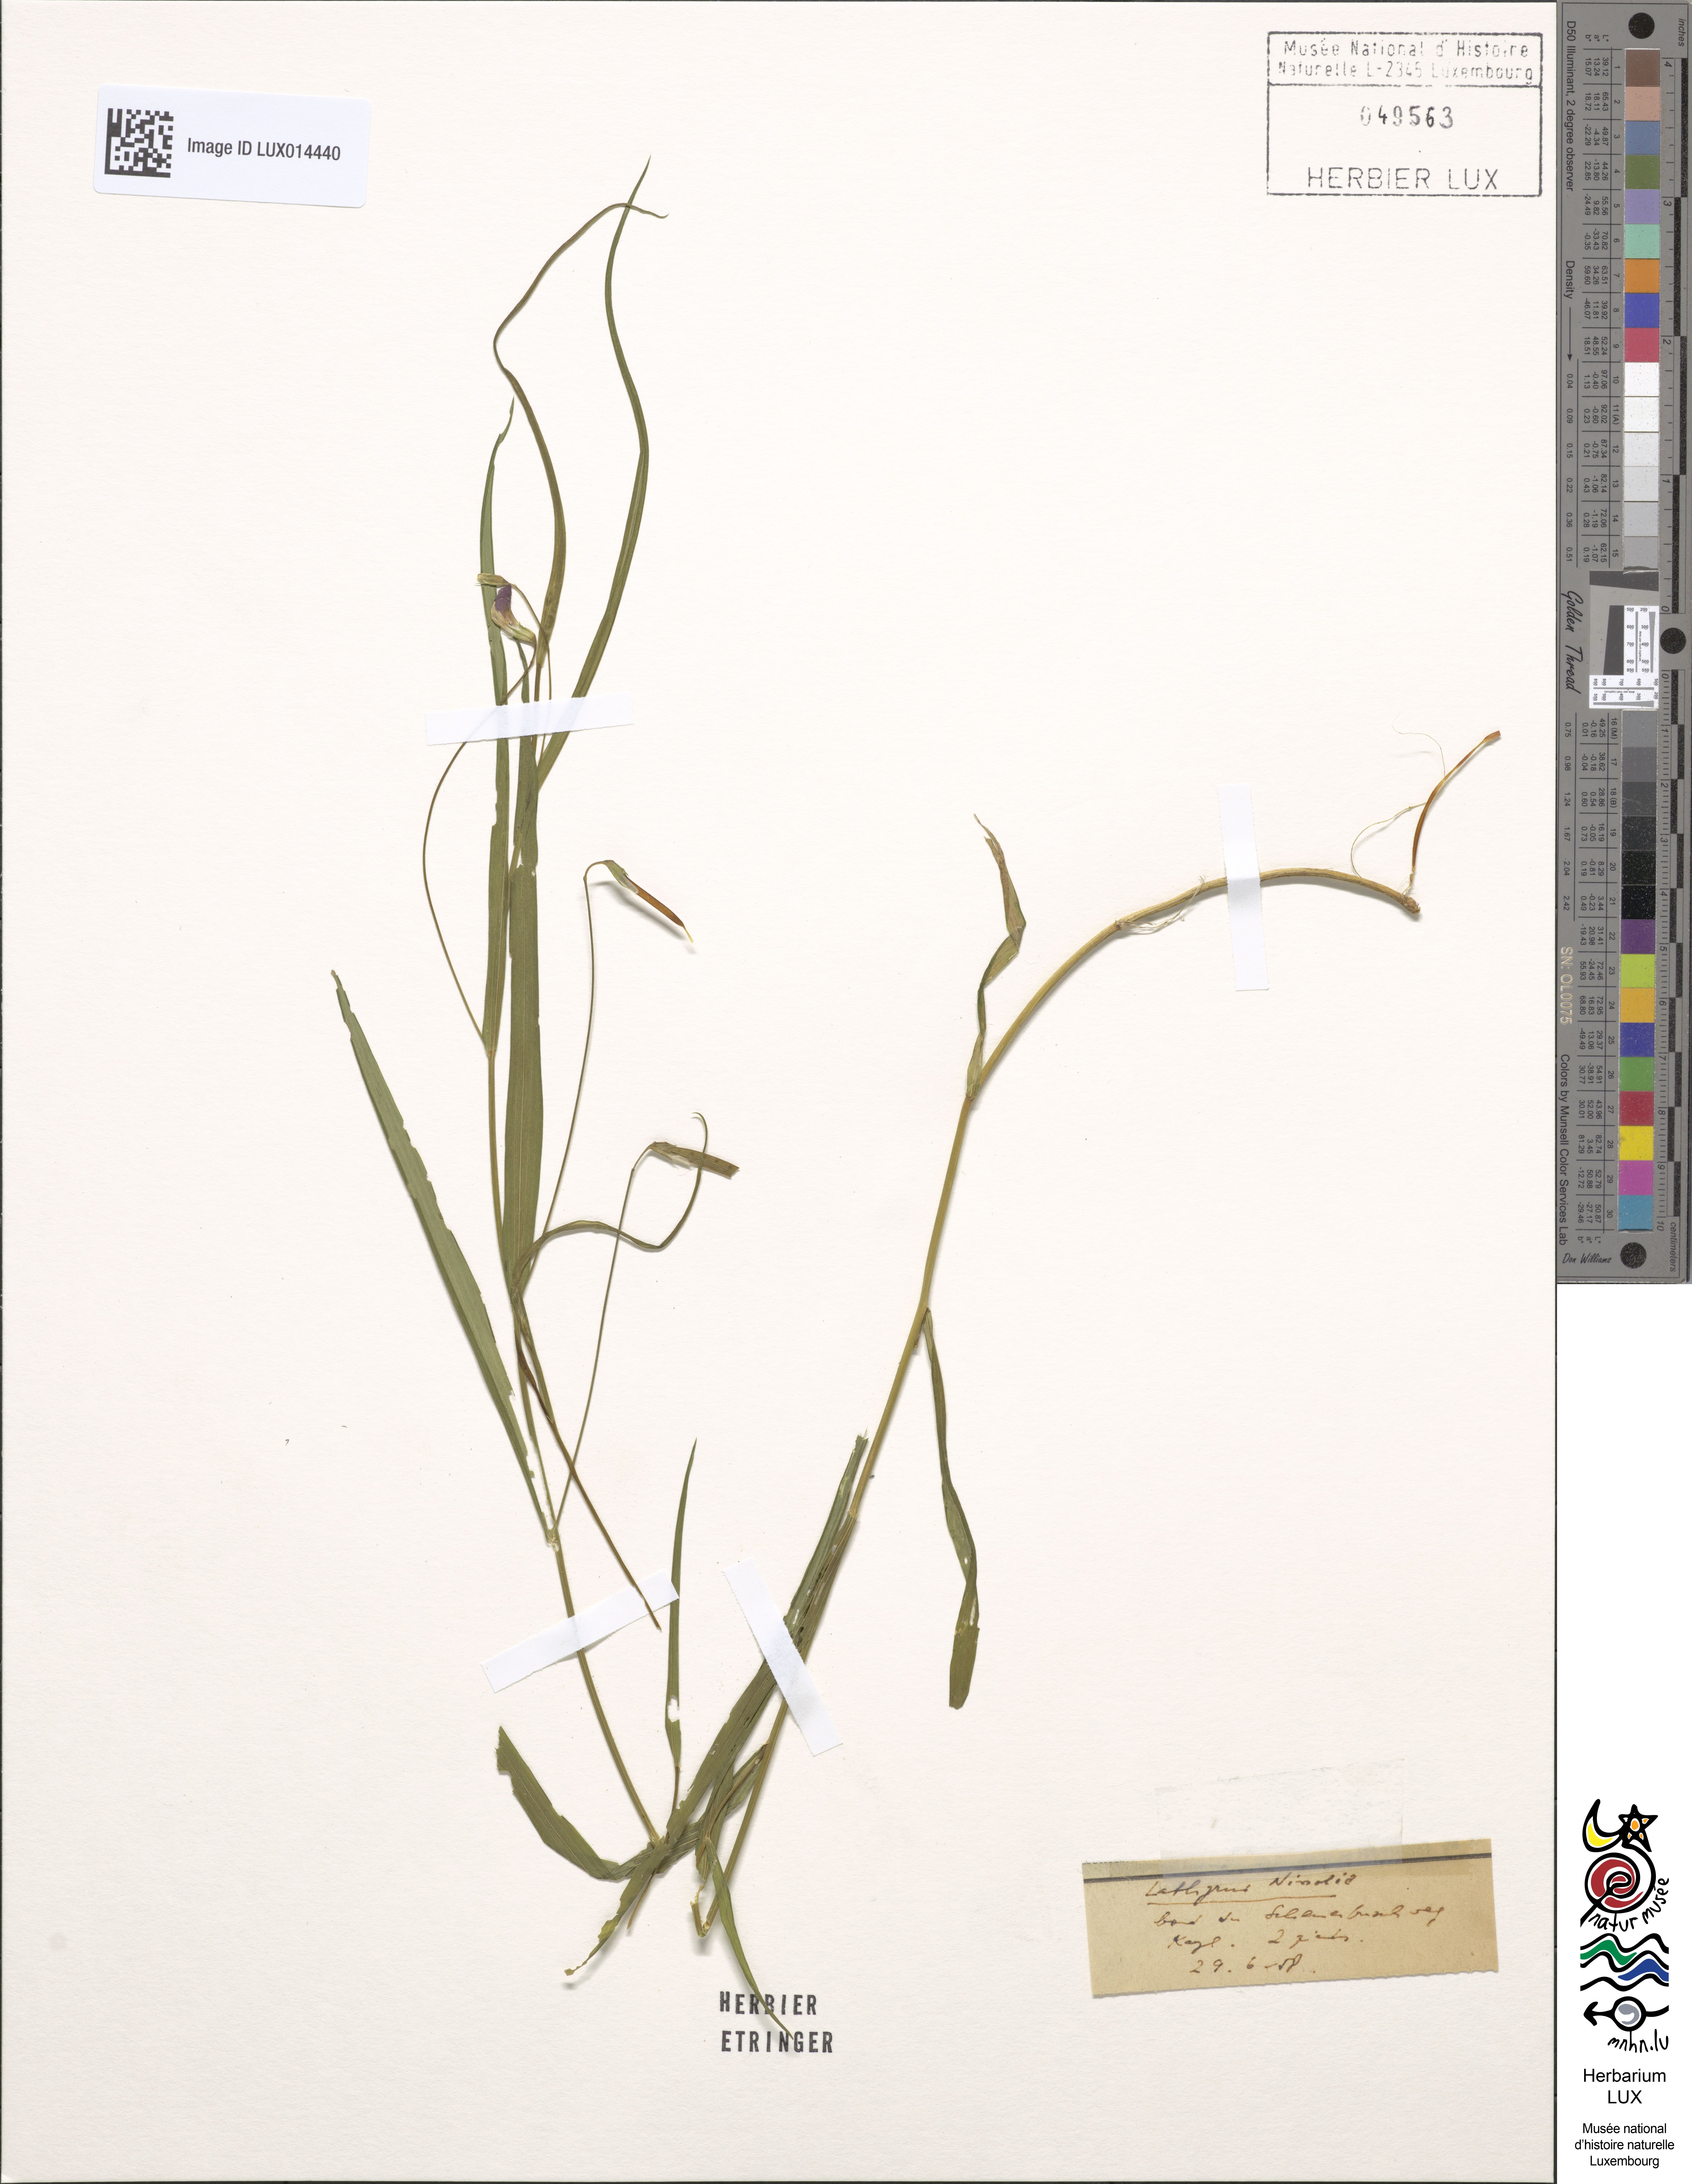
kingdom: Plantae
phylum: Tracheophyta
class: Magnoliopsida
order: Fabales
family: Fabaceae
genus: Lathyrus
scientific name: Lathyrus nissolia
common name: Grass vetchling
